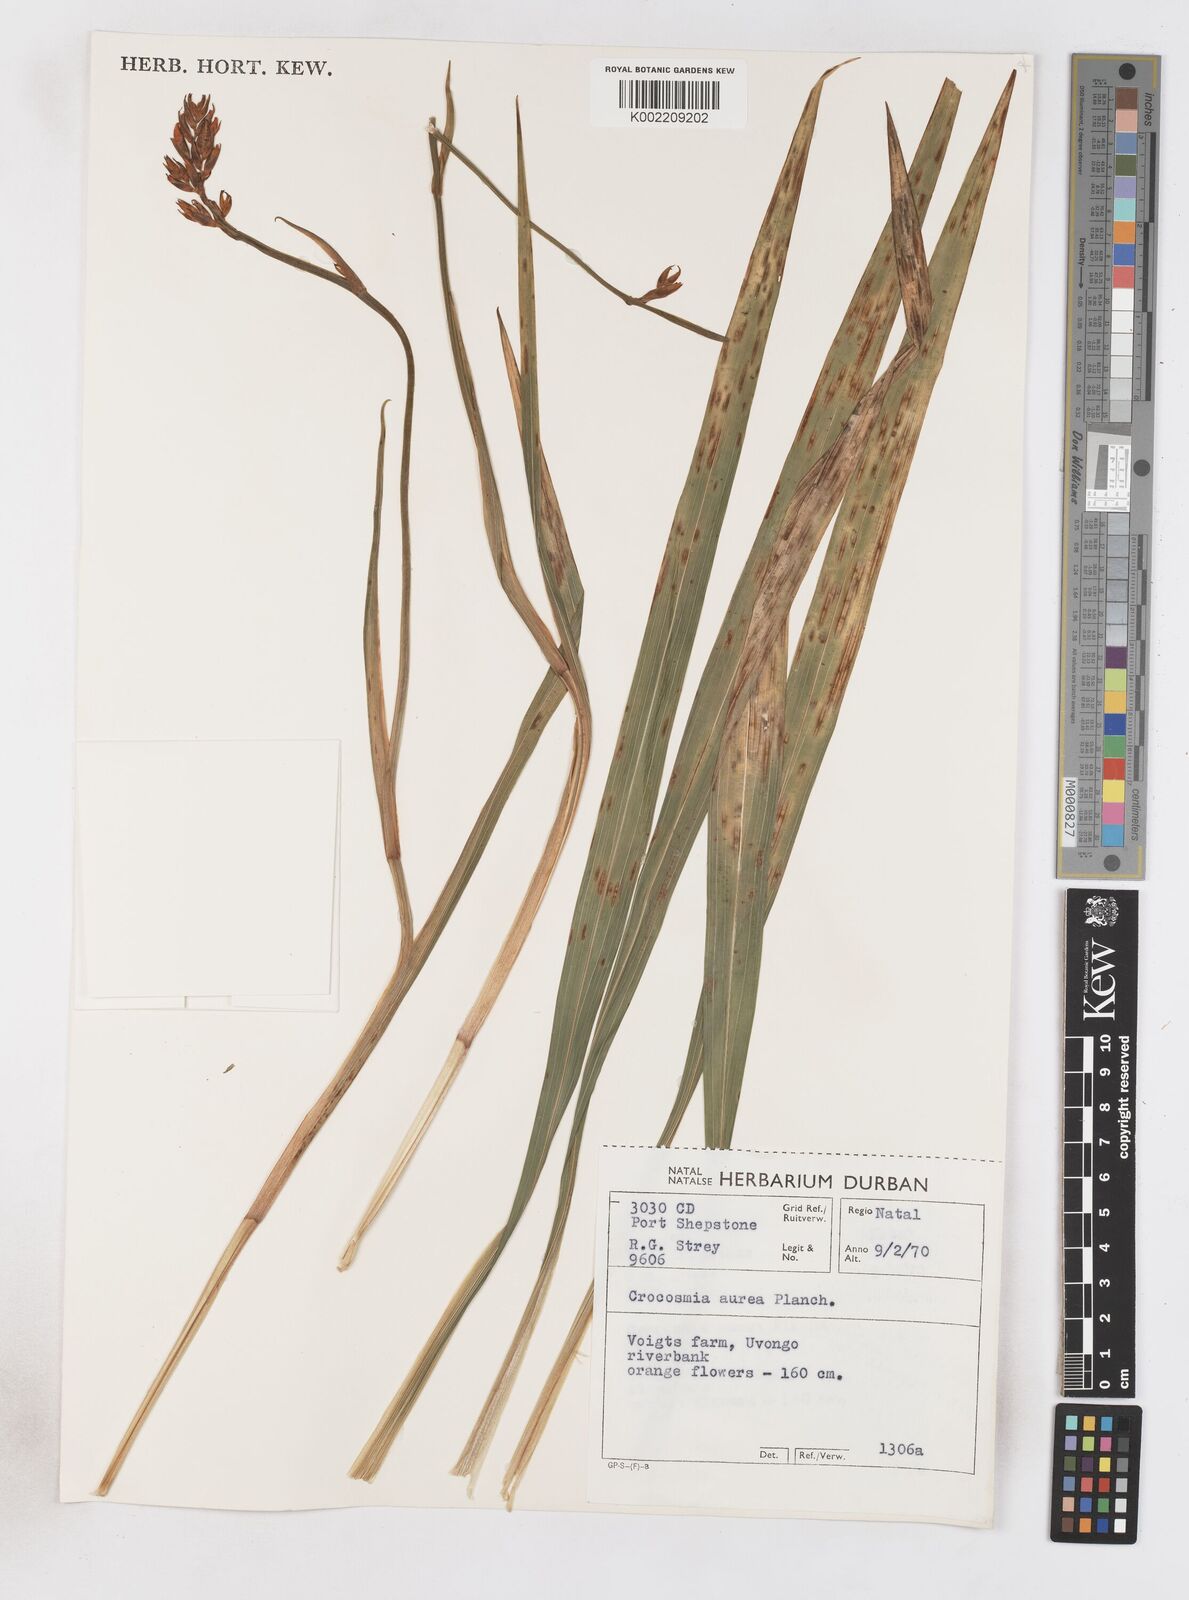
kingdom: Plantae
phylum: Tracheophyta
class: Liliopsida
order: Asparagales
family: Iridaceae
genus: Crocosmia
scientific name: Crocosmia aurea
